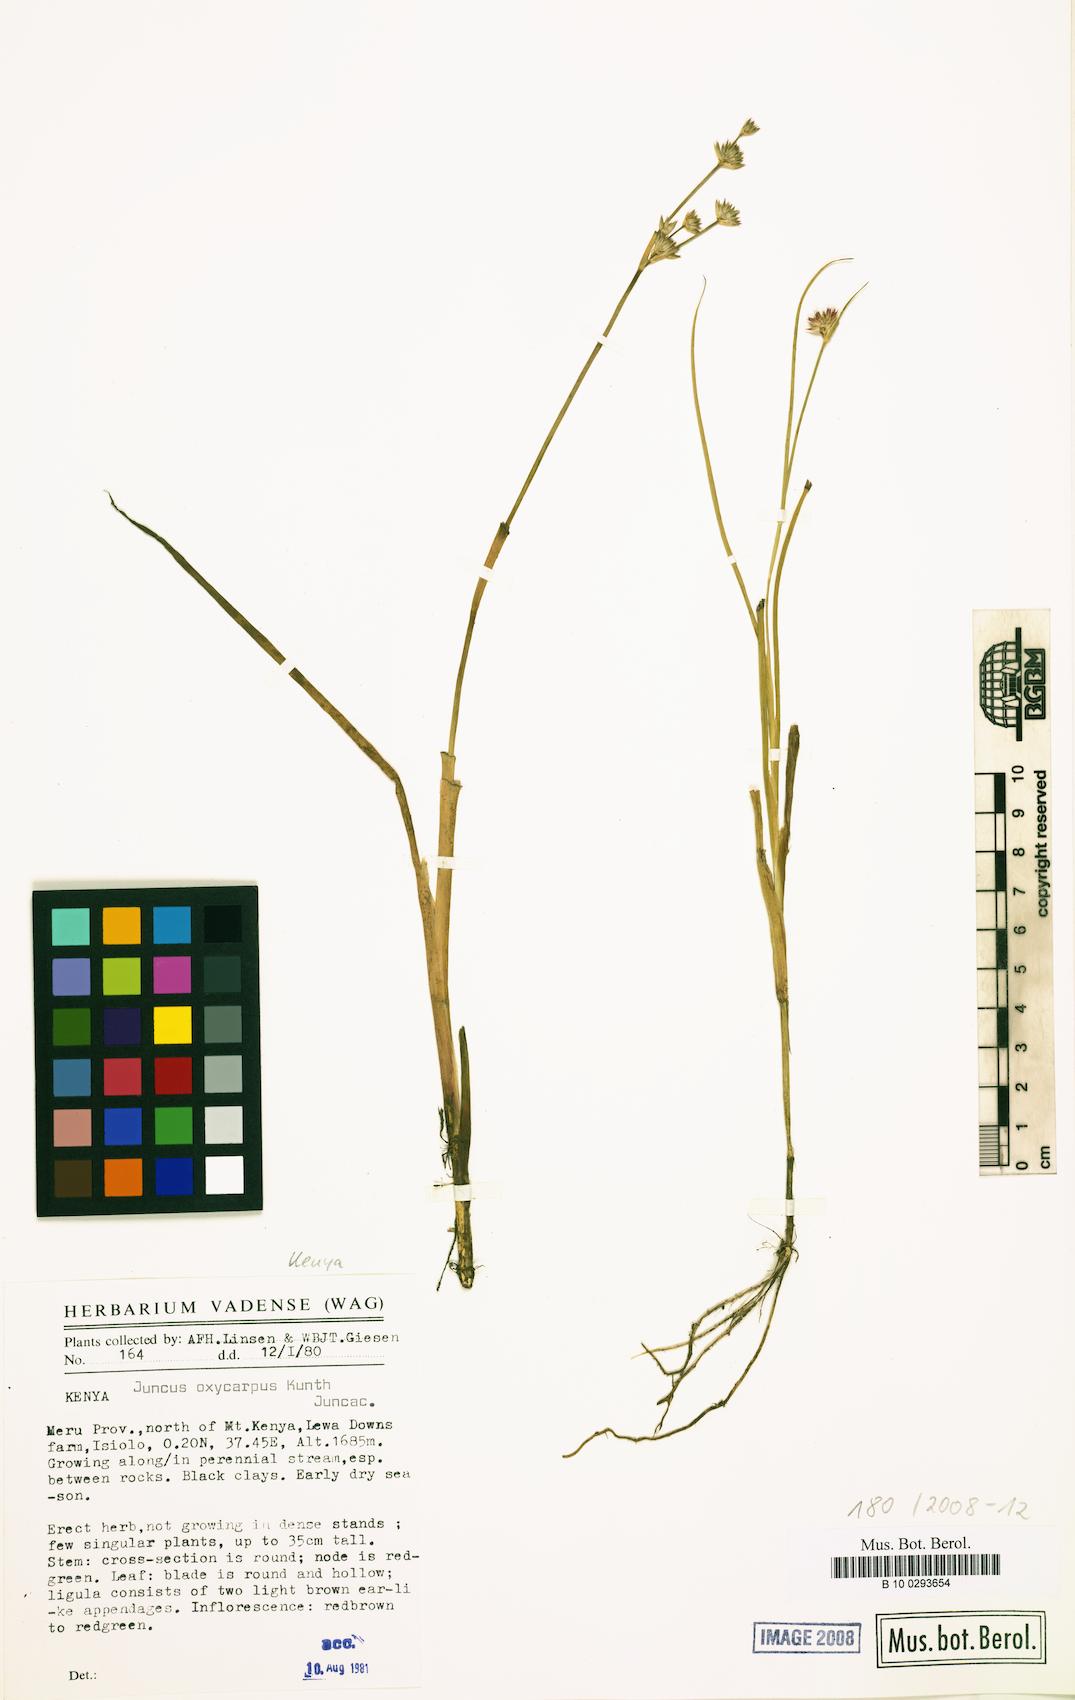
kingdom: Plantae
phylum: Tracheophyta
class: Liliopsida
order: Poales
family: Juncaceae
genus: Juncus
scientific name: Juncus oxycarpus
